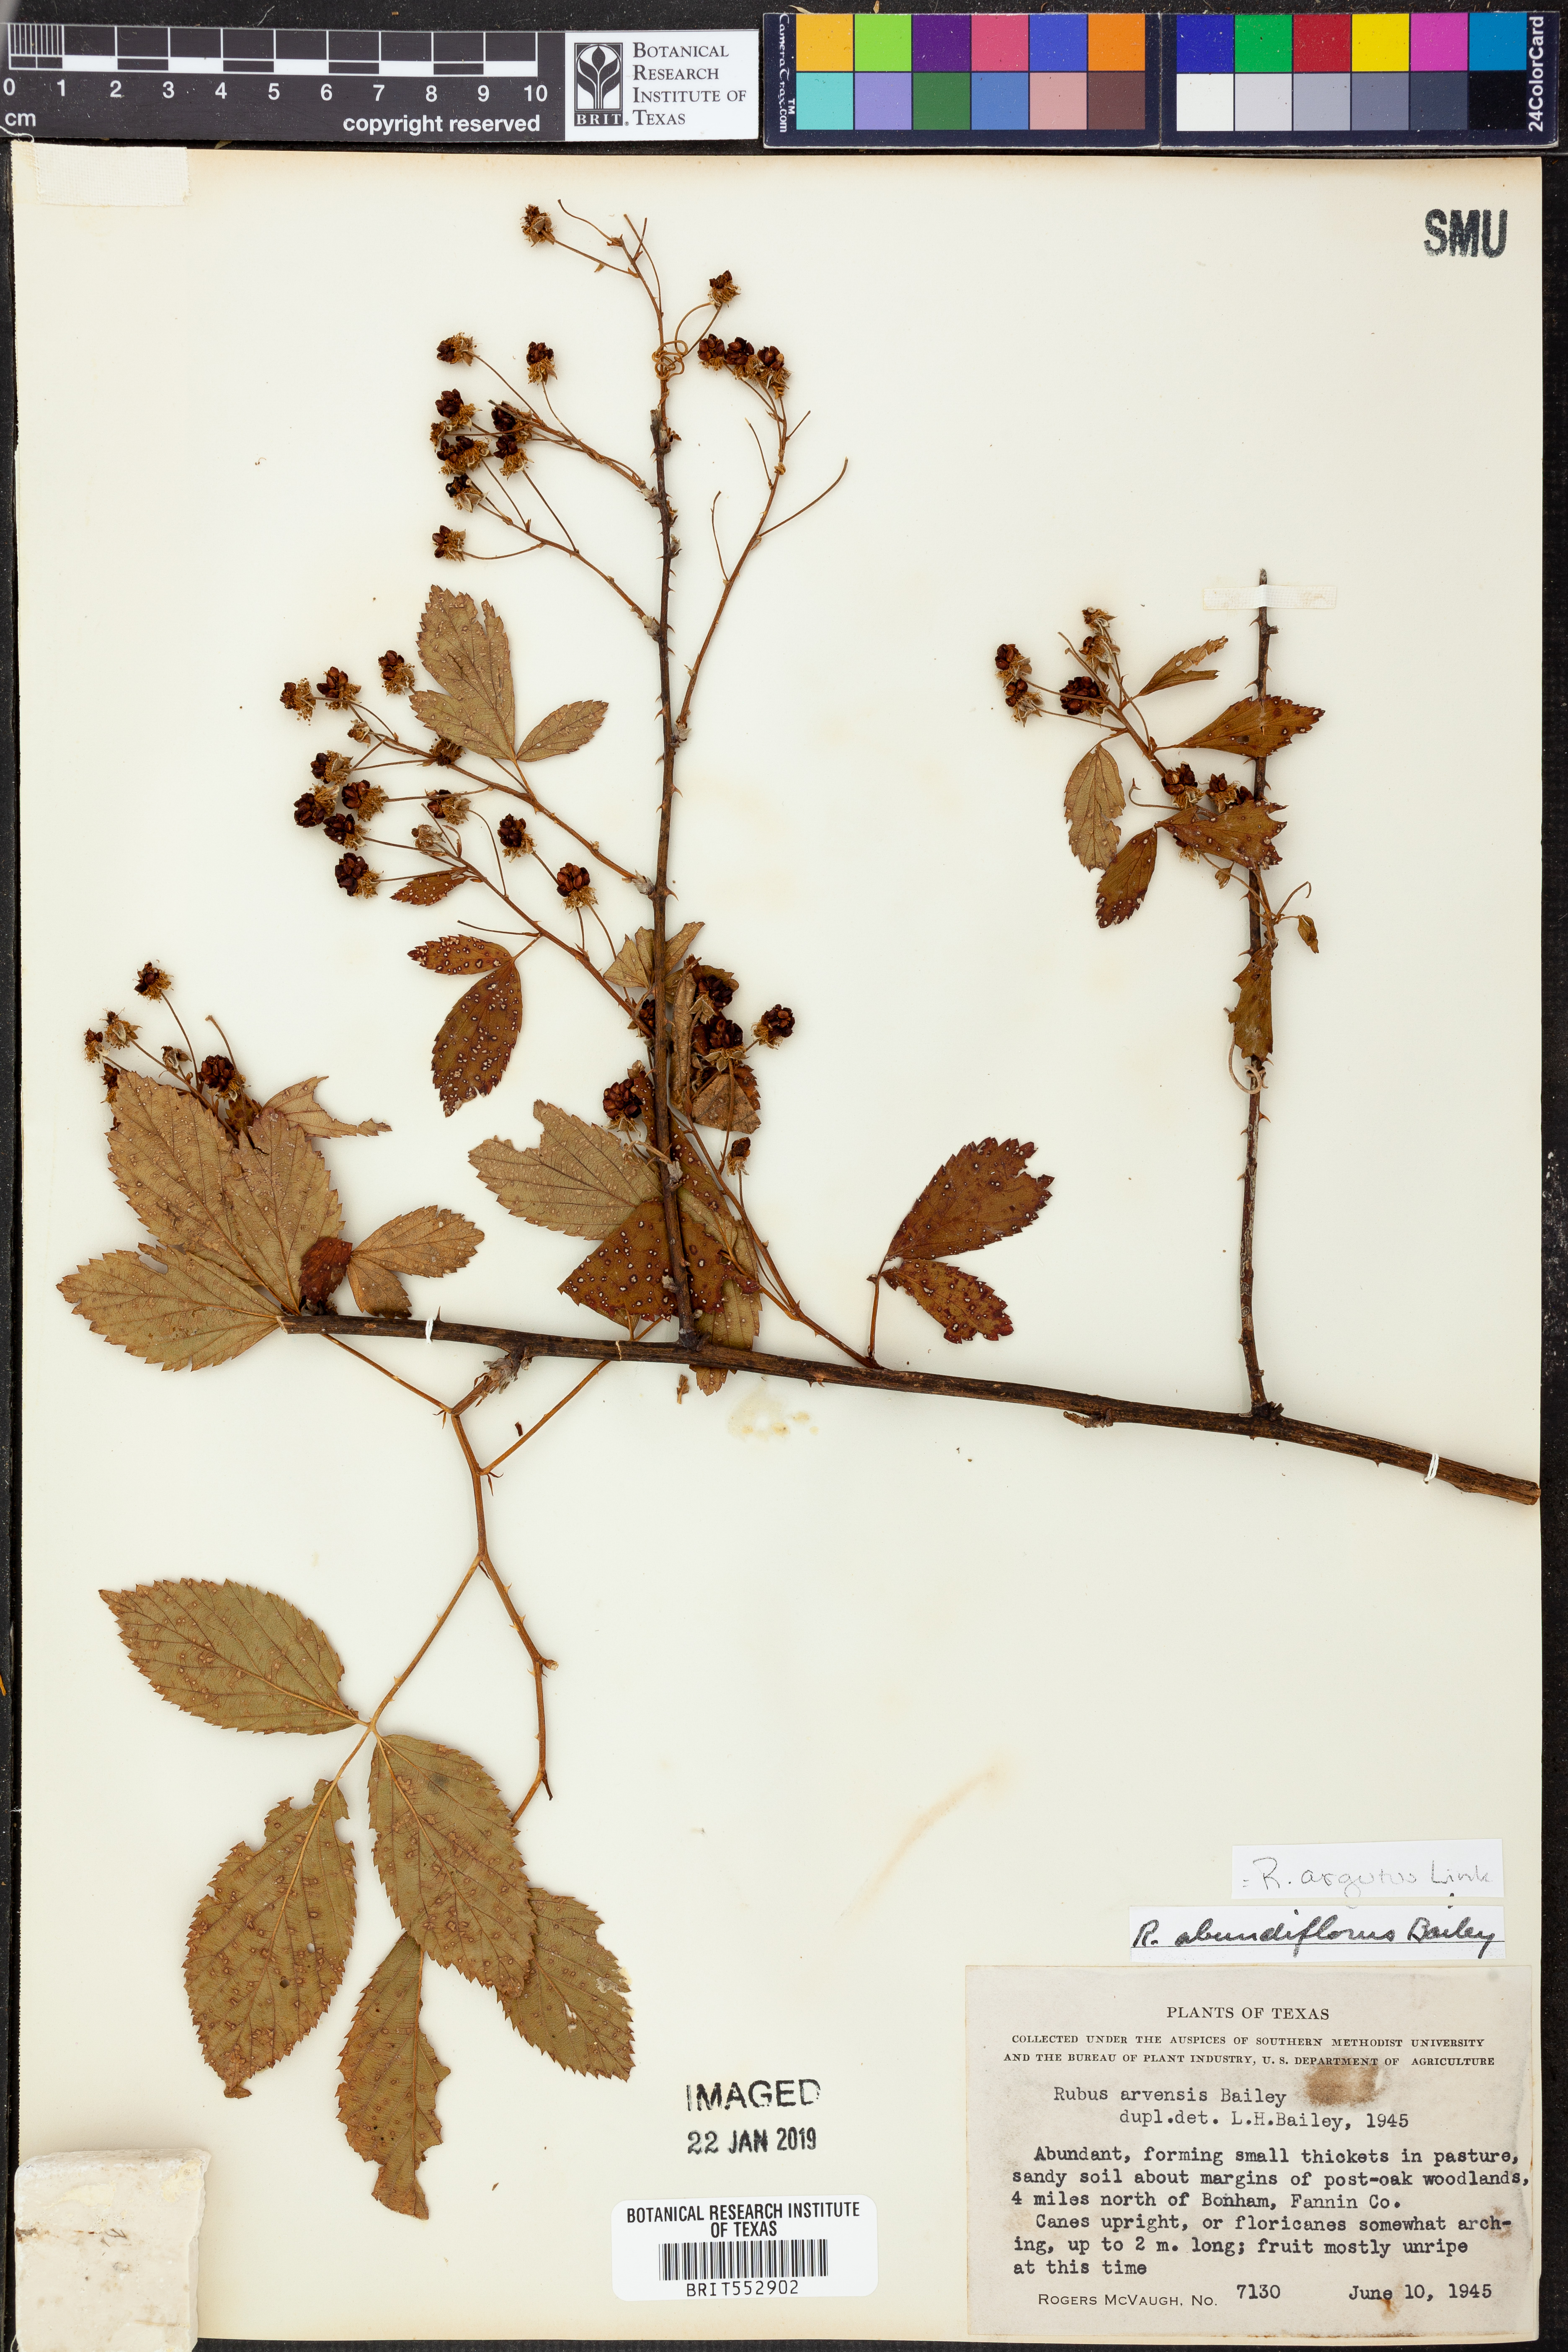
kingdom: Plantae
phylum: Tracheophyta
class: Magnoliopsida
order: Rosales
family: Rosaceae
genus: Rubus
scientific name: Rubus argutus
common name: Sawtooth blackberry
